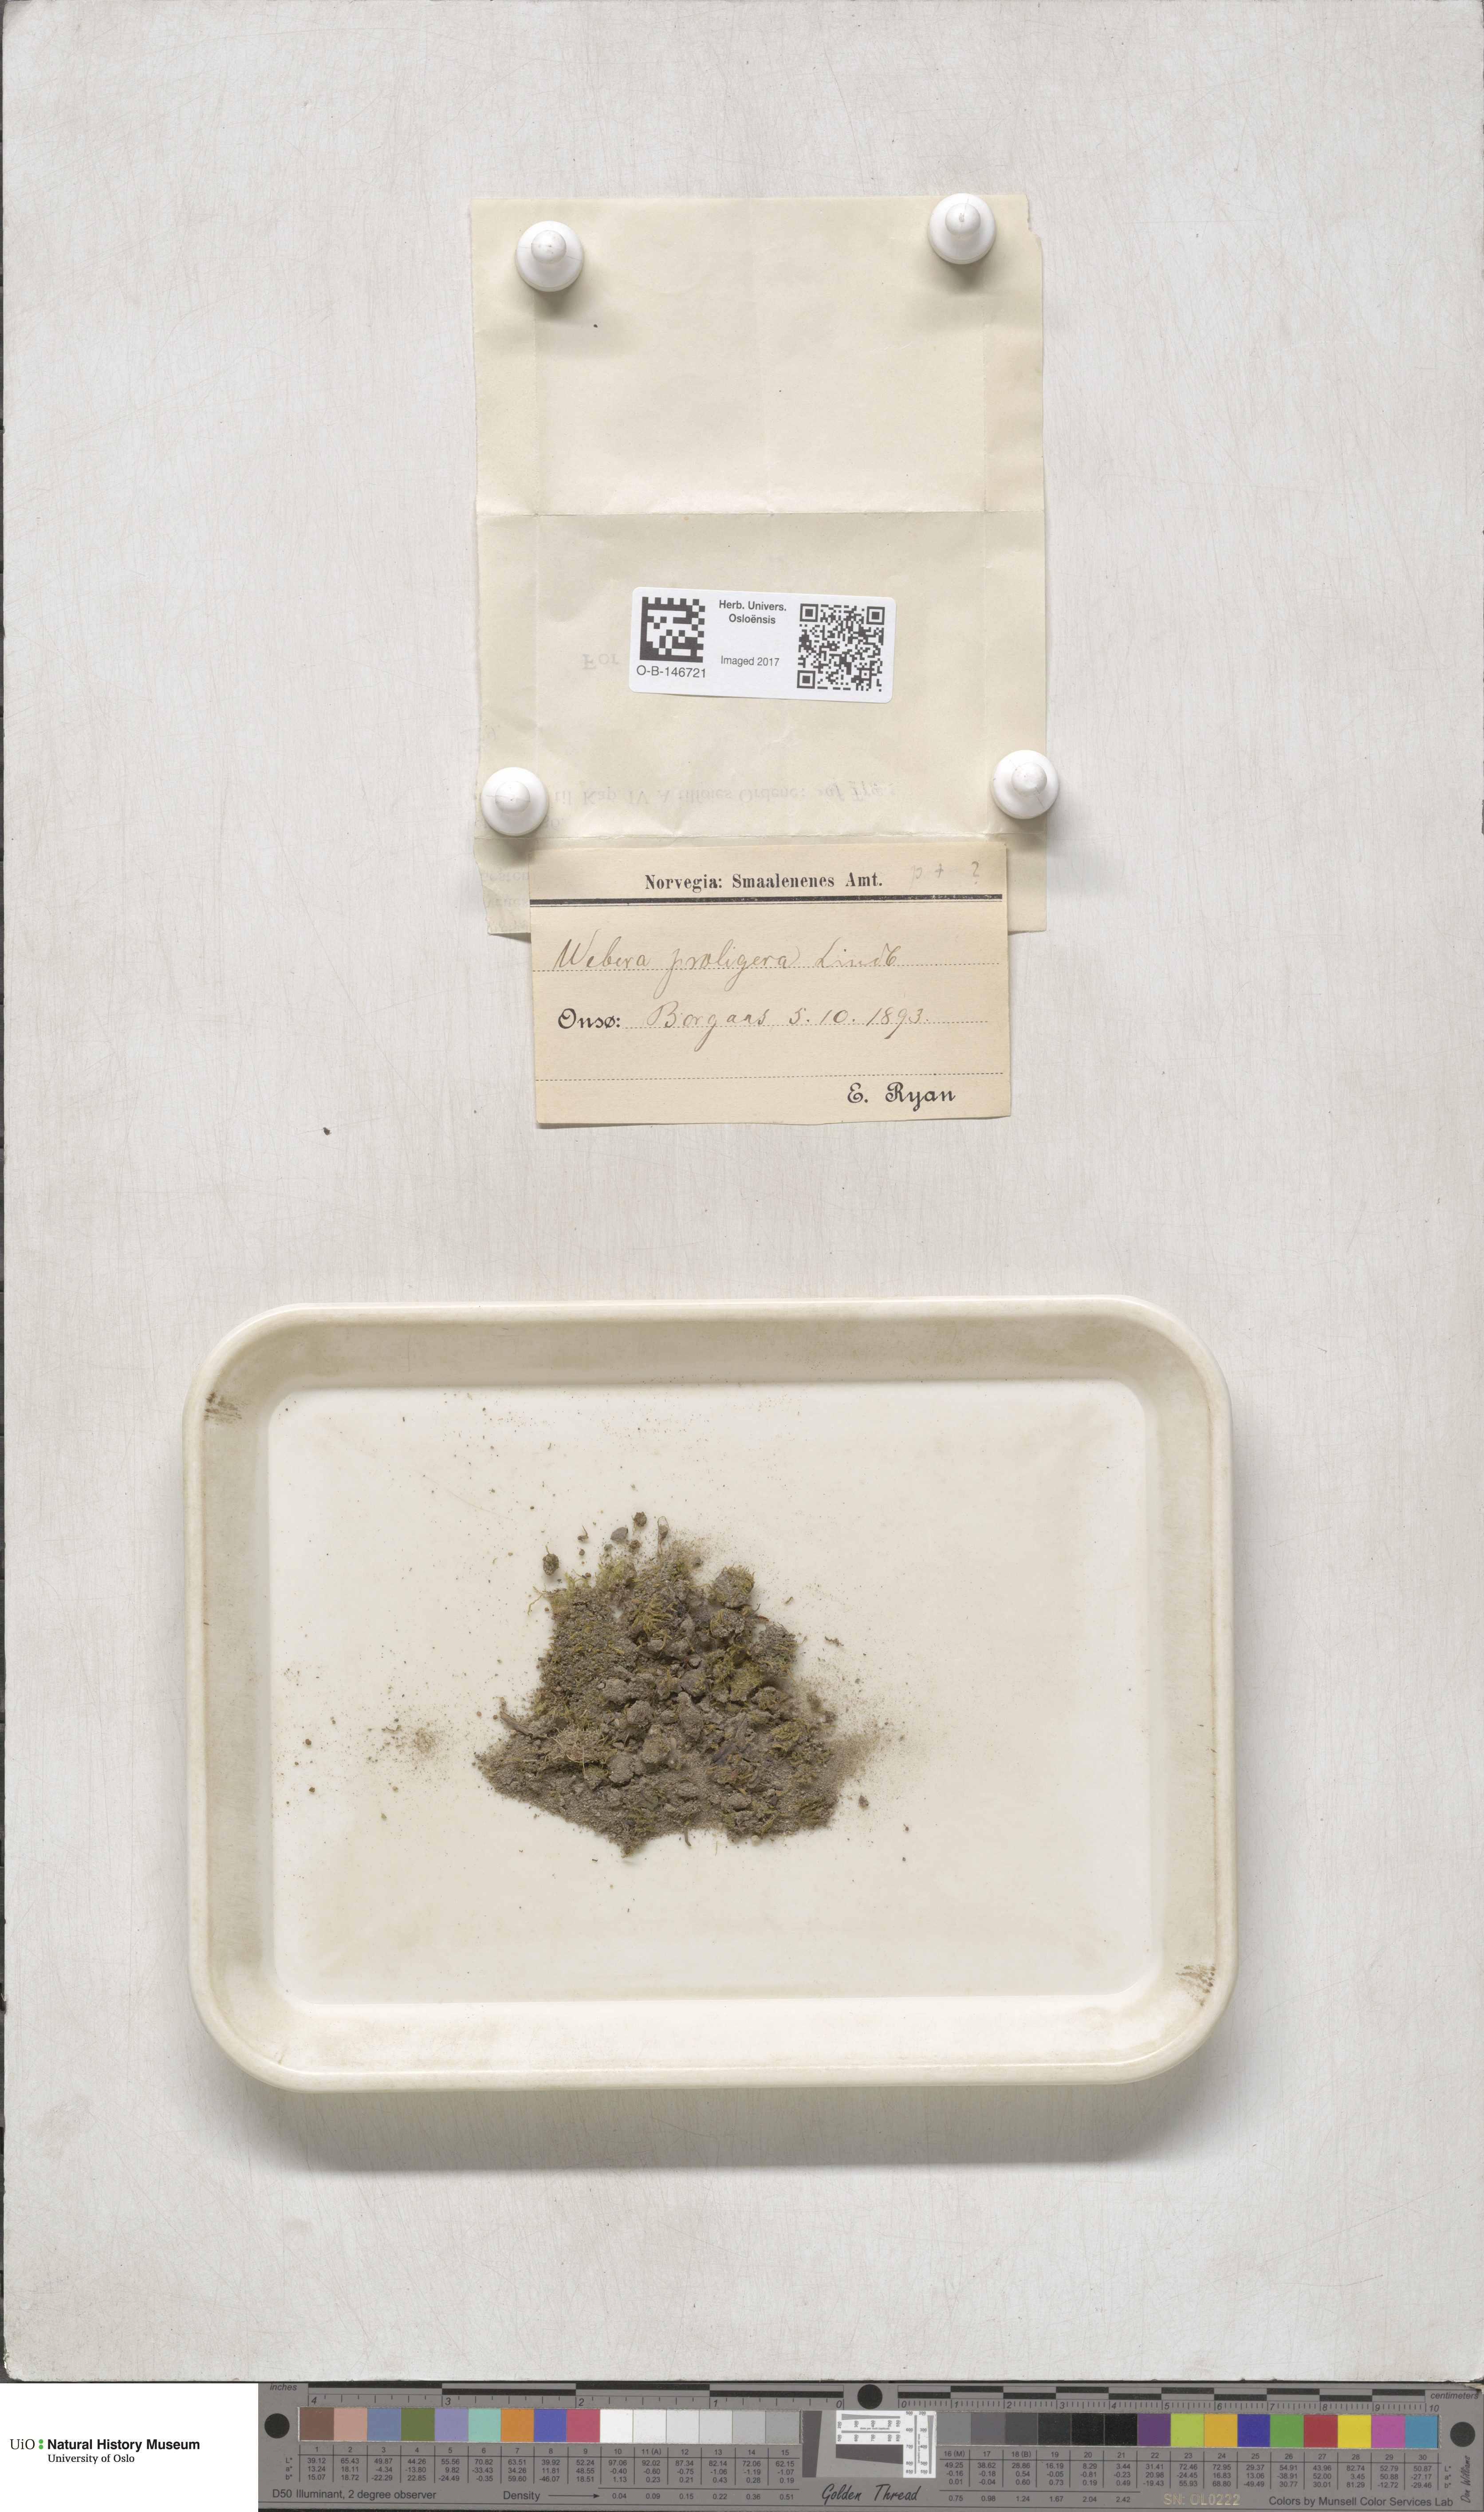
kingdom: Plantae
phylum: Bryophyta
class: Bryopsida
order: Bryales
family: Mniaceae
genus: Pohlia
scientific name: Pohlia proligera
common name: Cottony nodding moss
